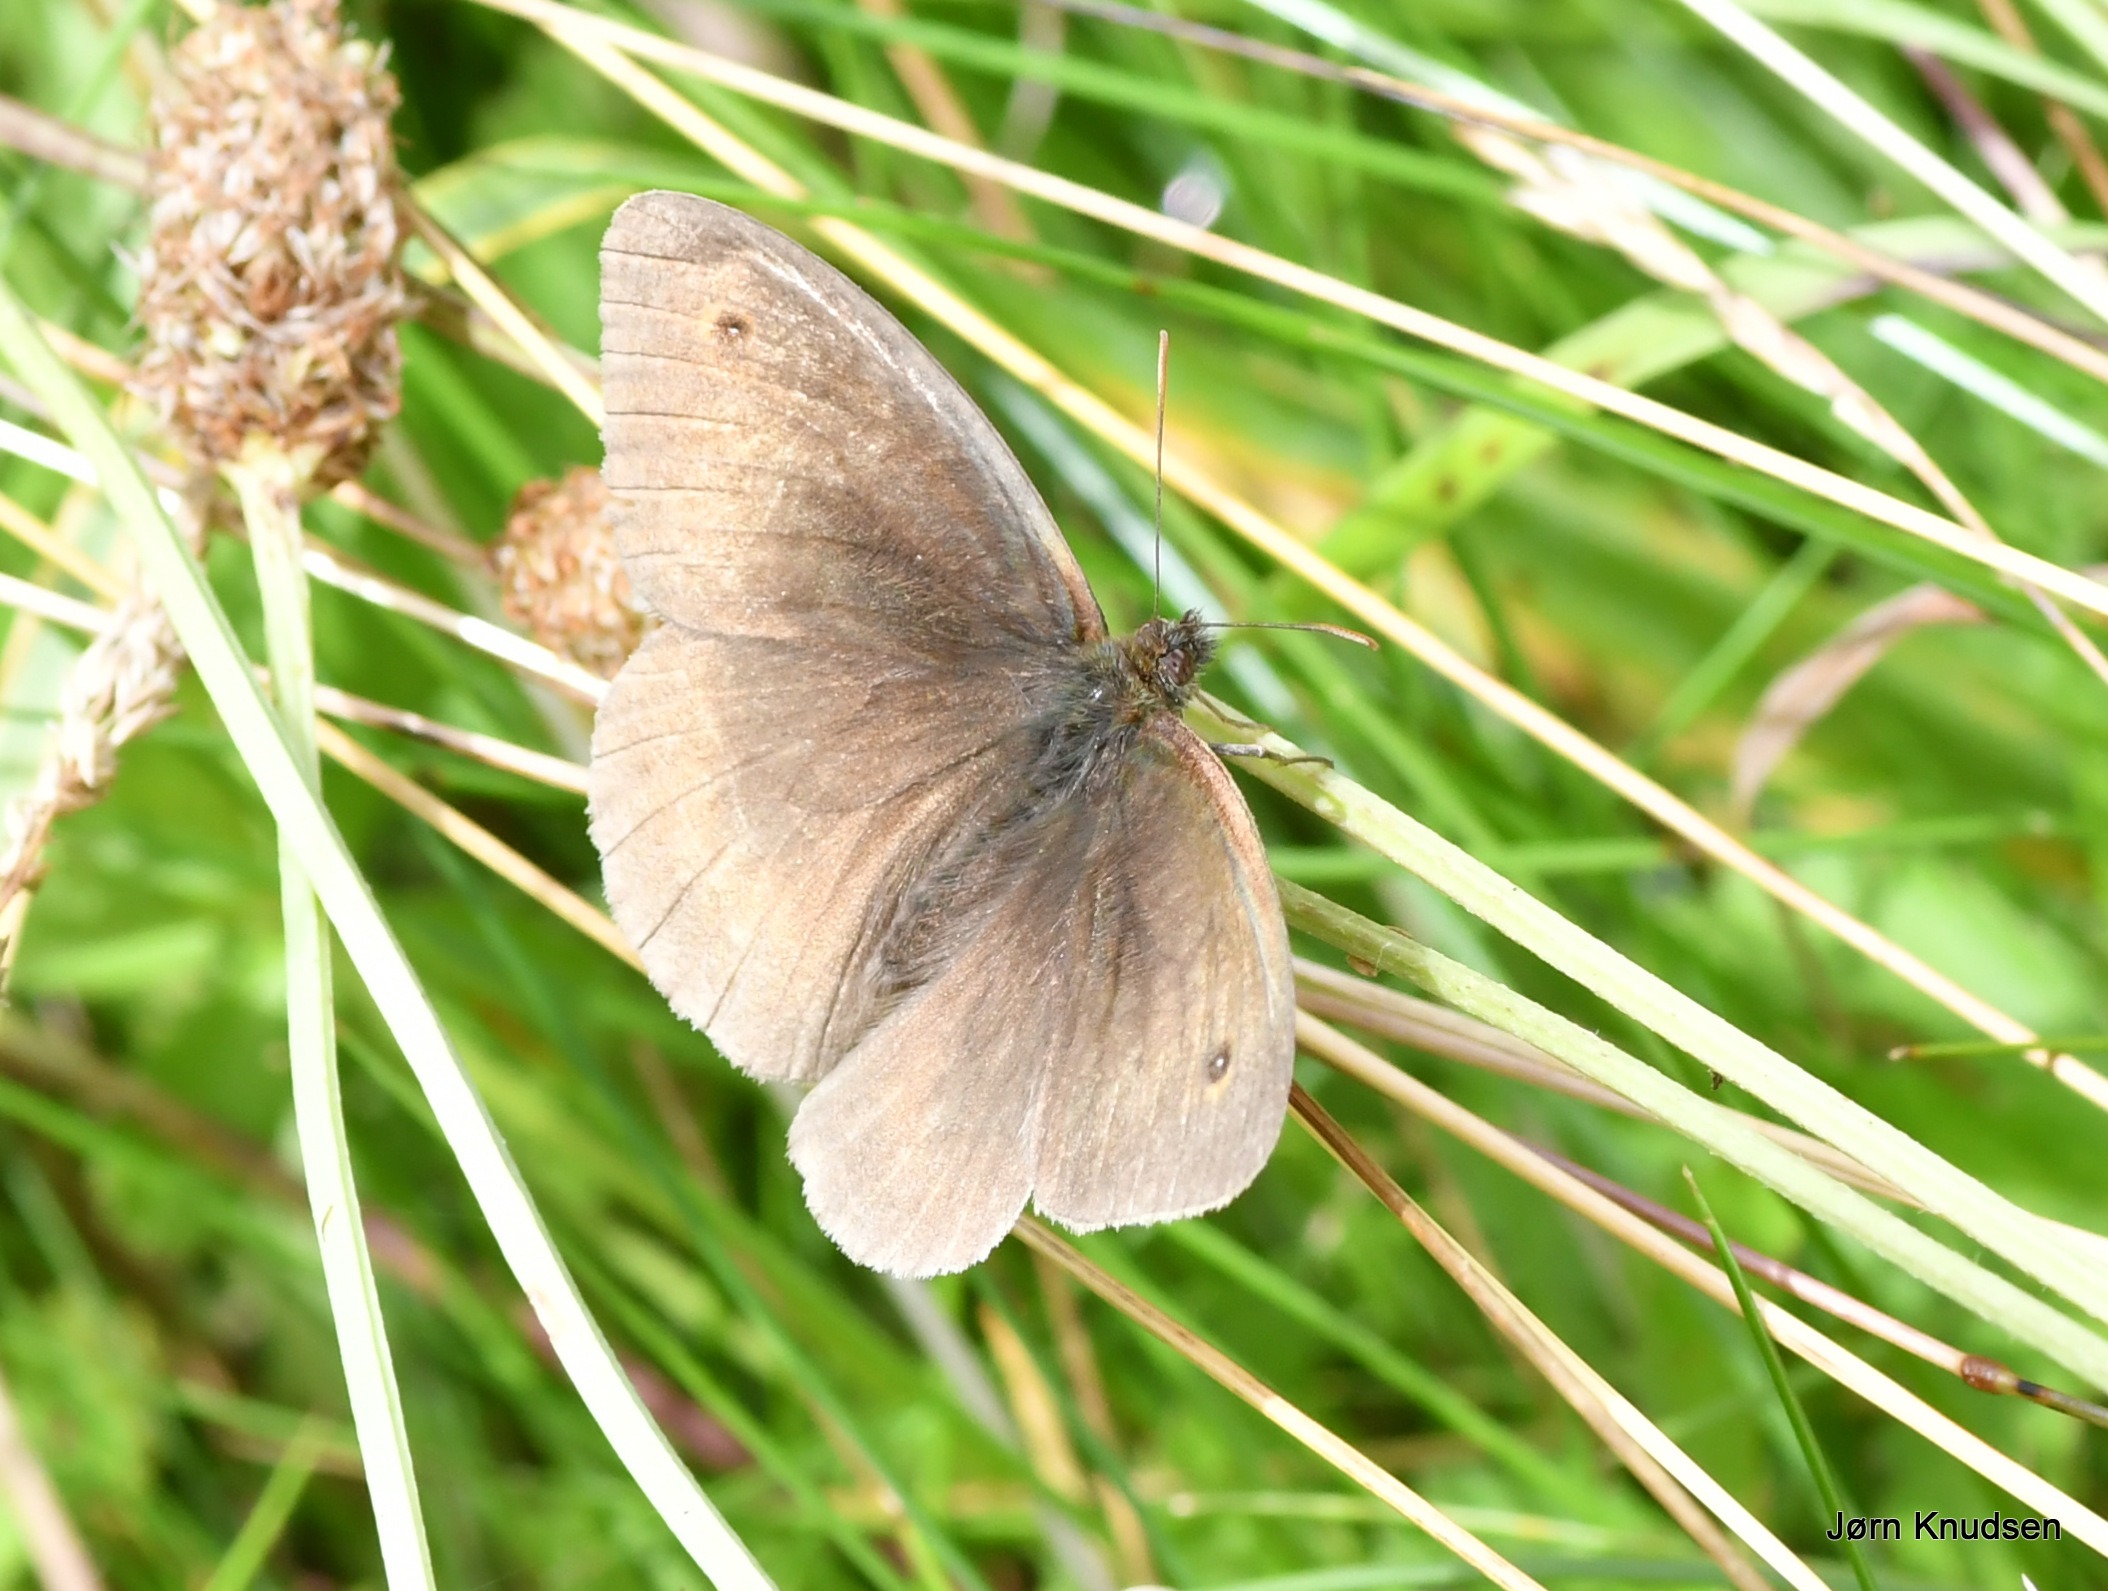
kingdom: Animalia
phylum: Arthropoda
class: Insecta
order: Lepidoptera
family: Nymphalidae
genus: Maniola
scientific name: Maniola jurtina
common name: Græsrandøje
